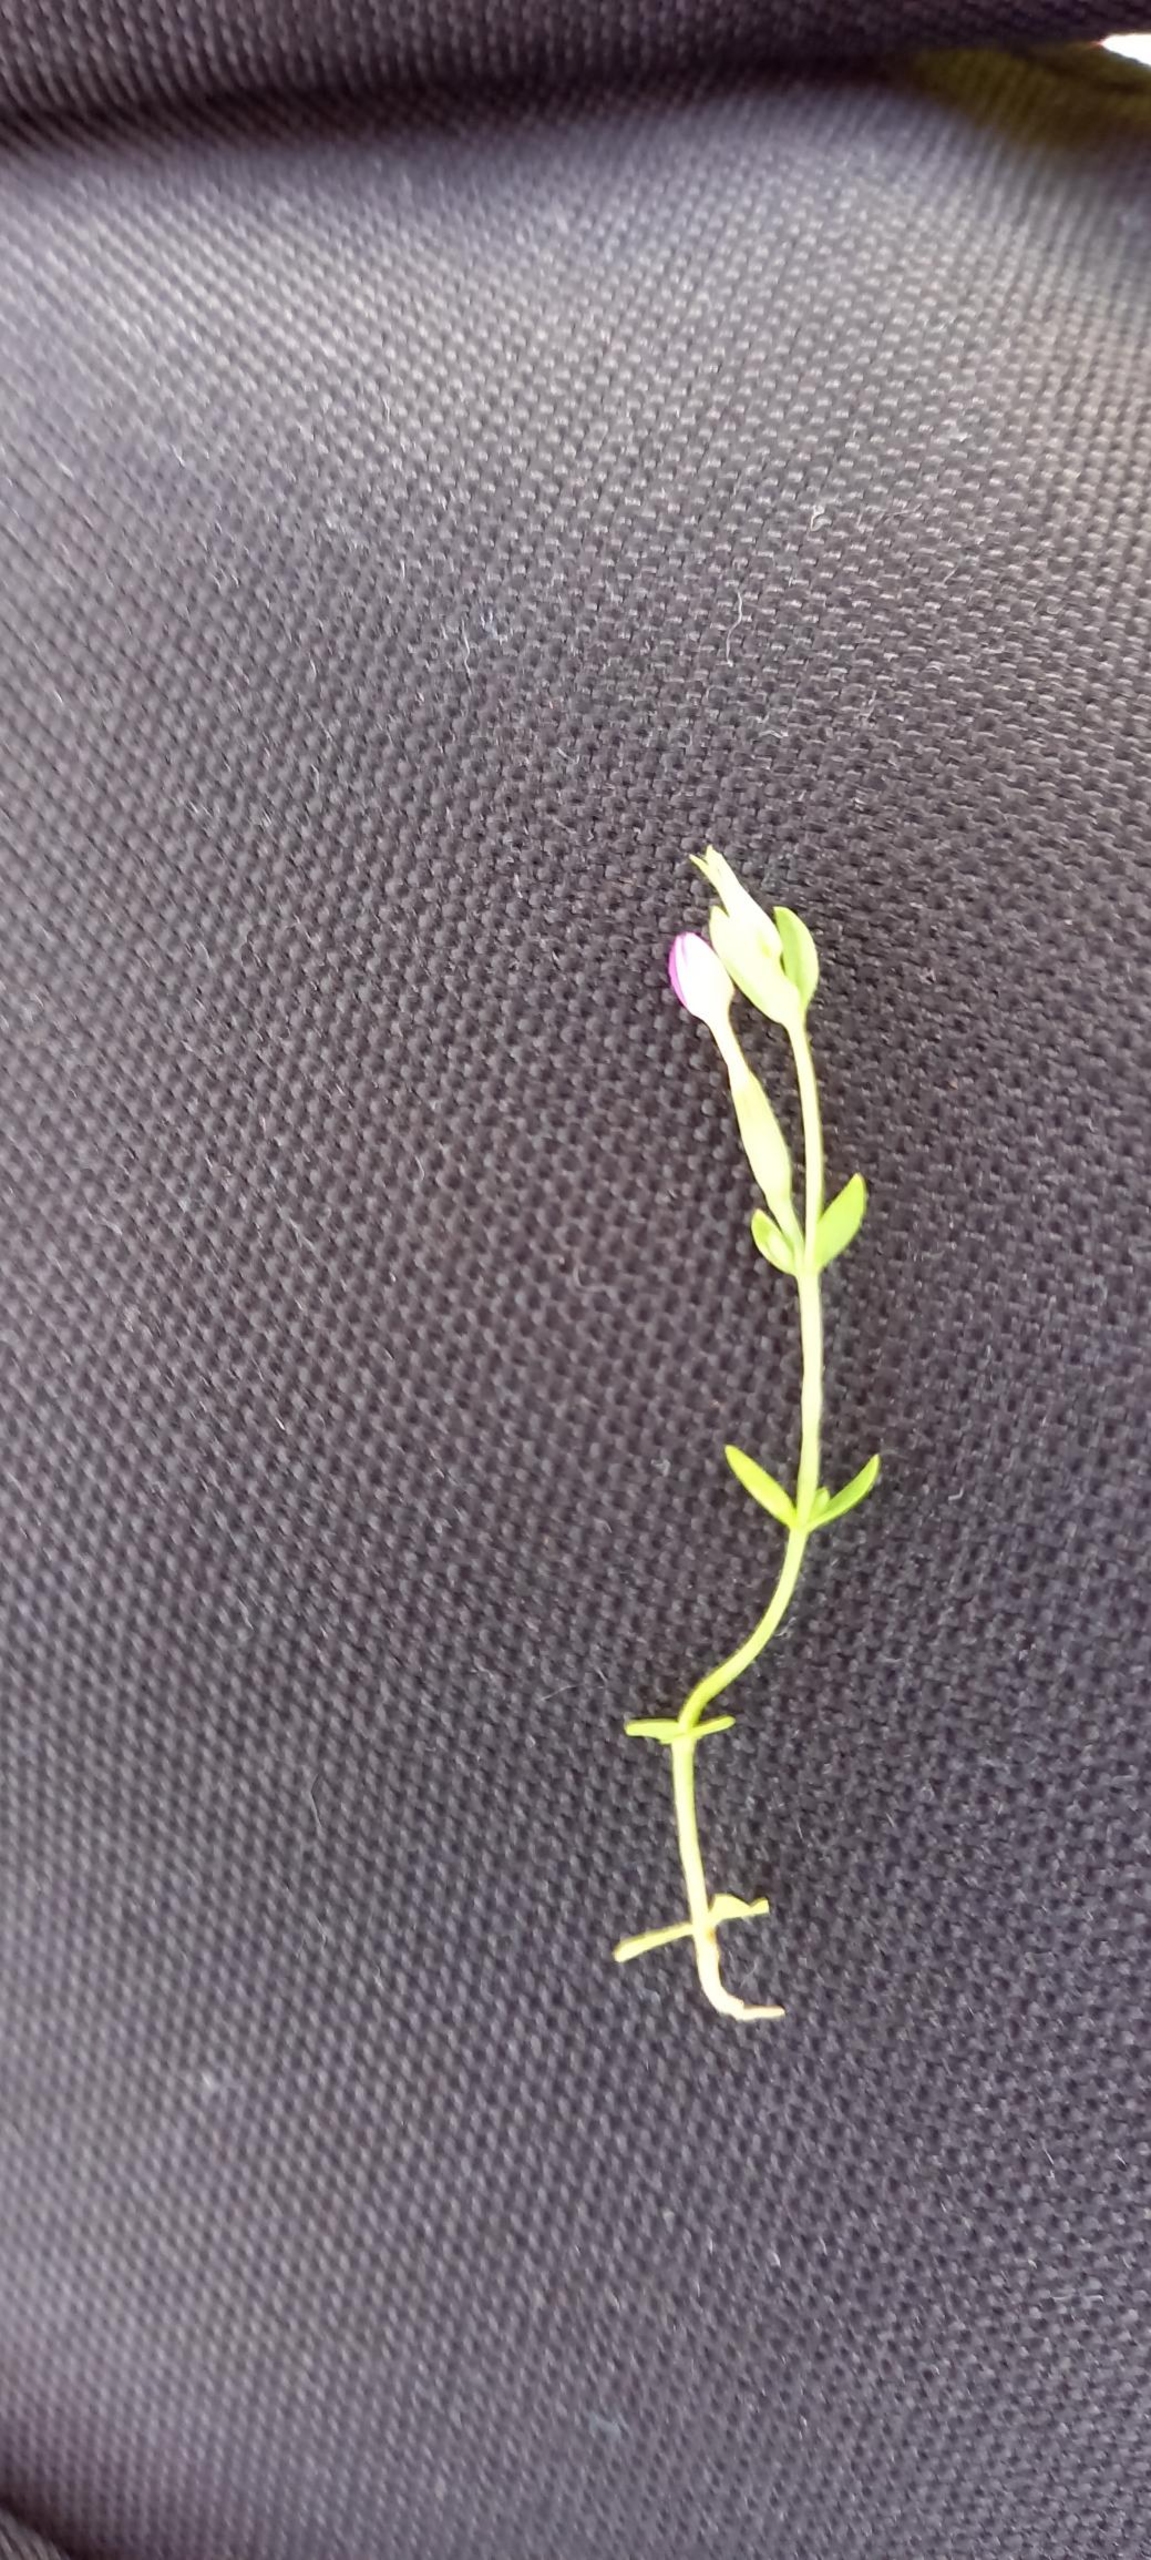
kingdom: Plantae
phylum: Tracheophyta
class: Magnoliopsida
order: Gentianales
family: Gentianaceae
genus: Centaurium
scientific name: Centaurium pulchellum
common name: Liden tusindgylden
